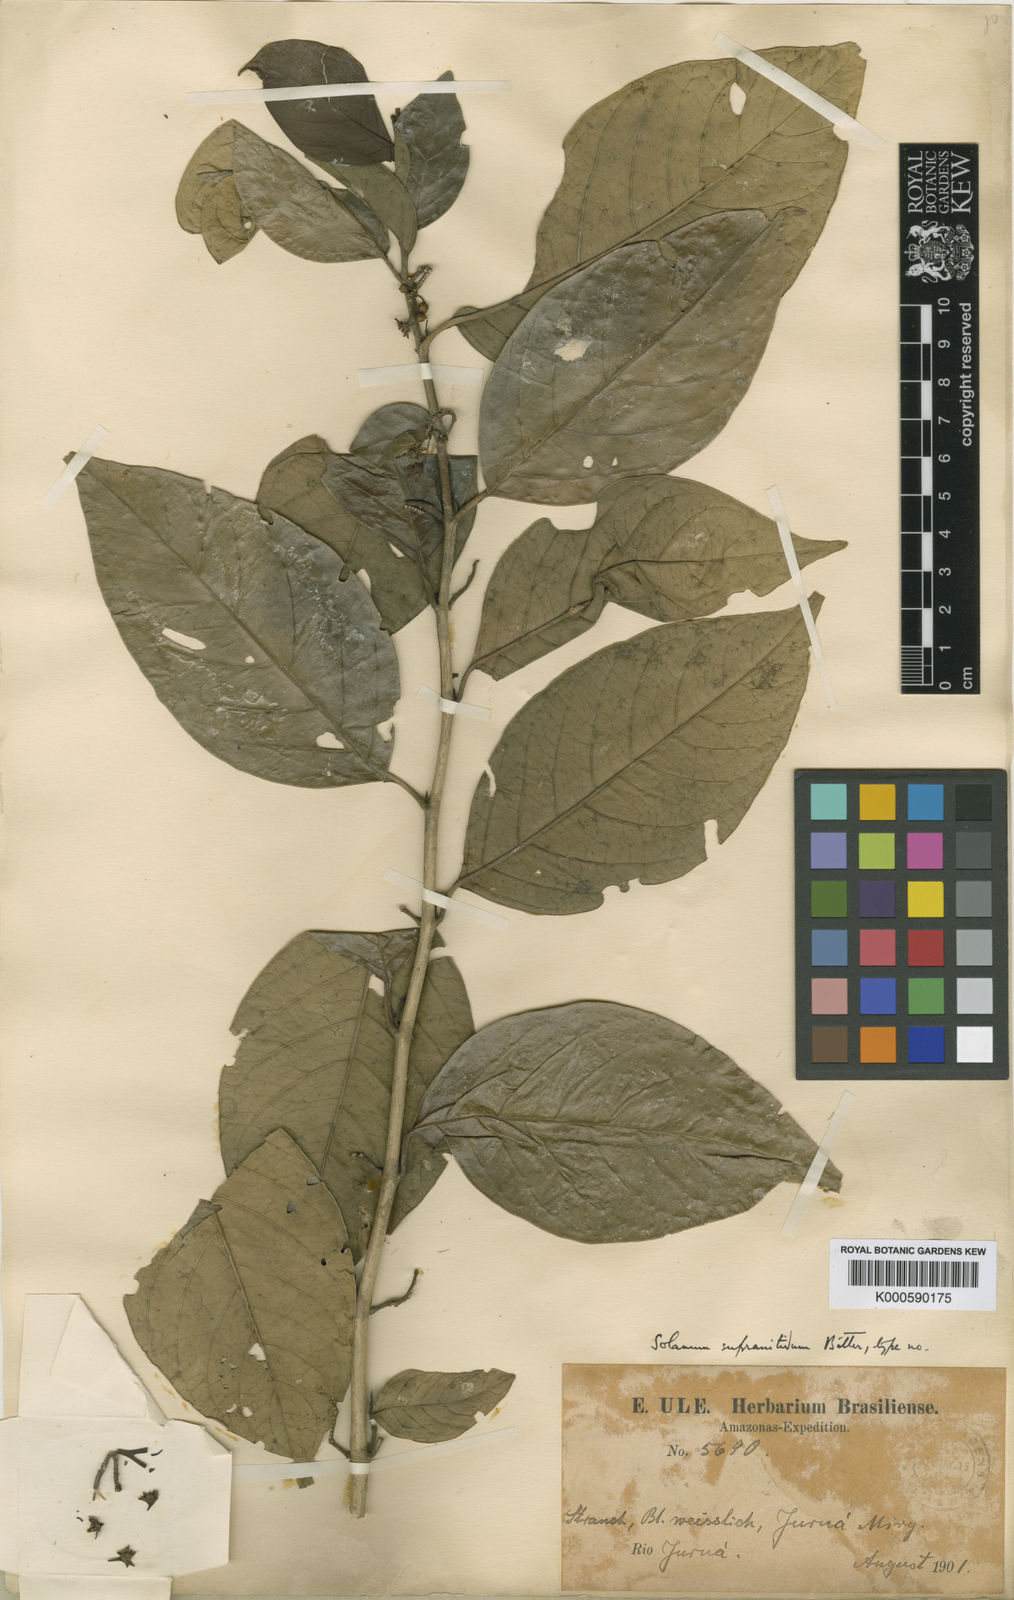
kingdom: Plantae
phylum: Tracheophyta
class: Magnoliopsida
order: Solanales
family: Solanaceae
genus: Solanum
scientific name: Solanum nudum
